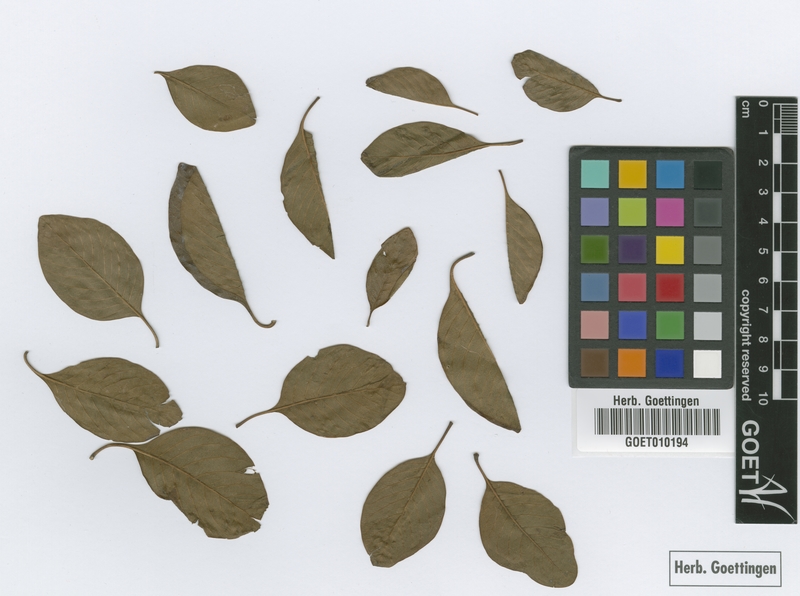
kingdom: Plantae
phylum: Tracheophyta
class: Magnoliopsida
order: Gentianales
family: Rubiaceae
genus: Calycophyllum
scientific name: Calycophyllum multiflorum
